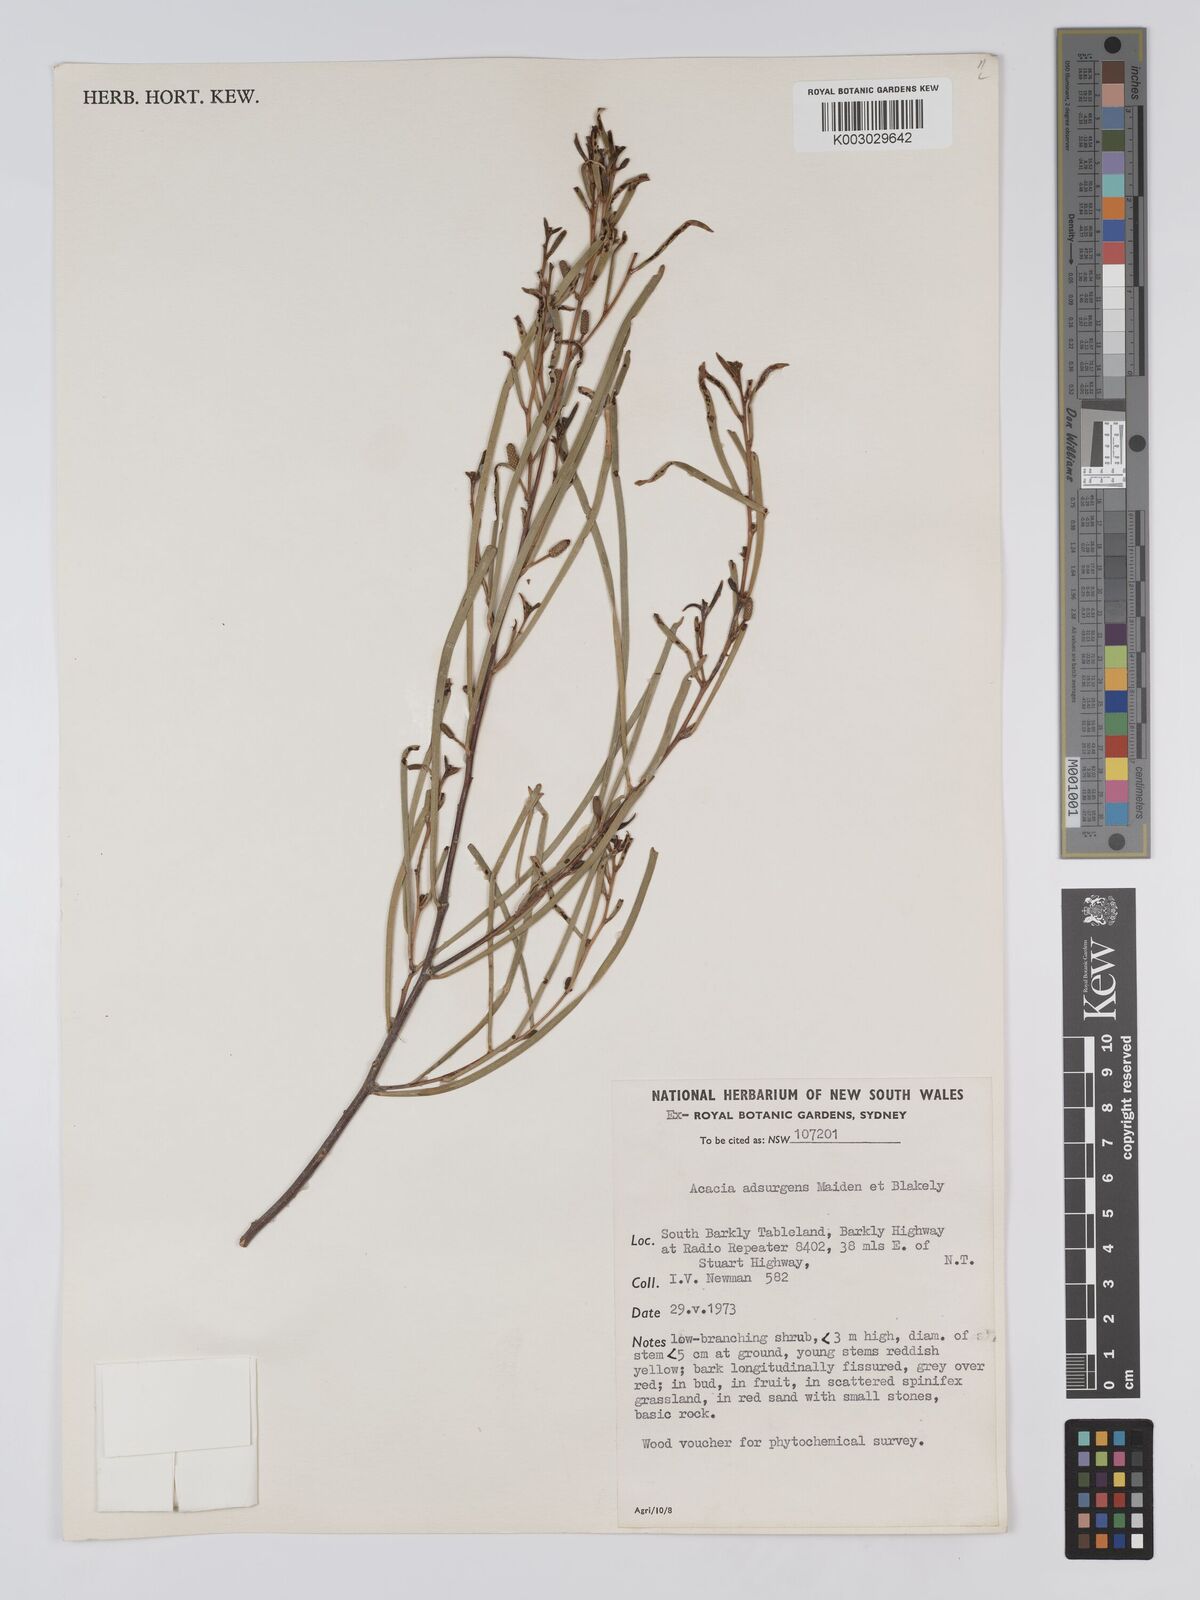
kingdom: Plantae
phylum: Tracheophyta
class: Magnoliopsida
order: Fabales
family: Fabaceae
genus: Acacia
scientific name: Acacia adsurgens
